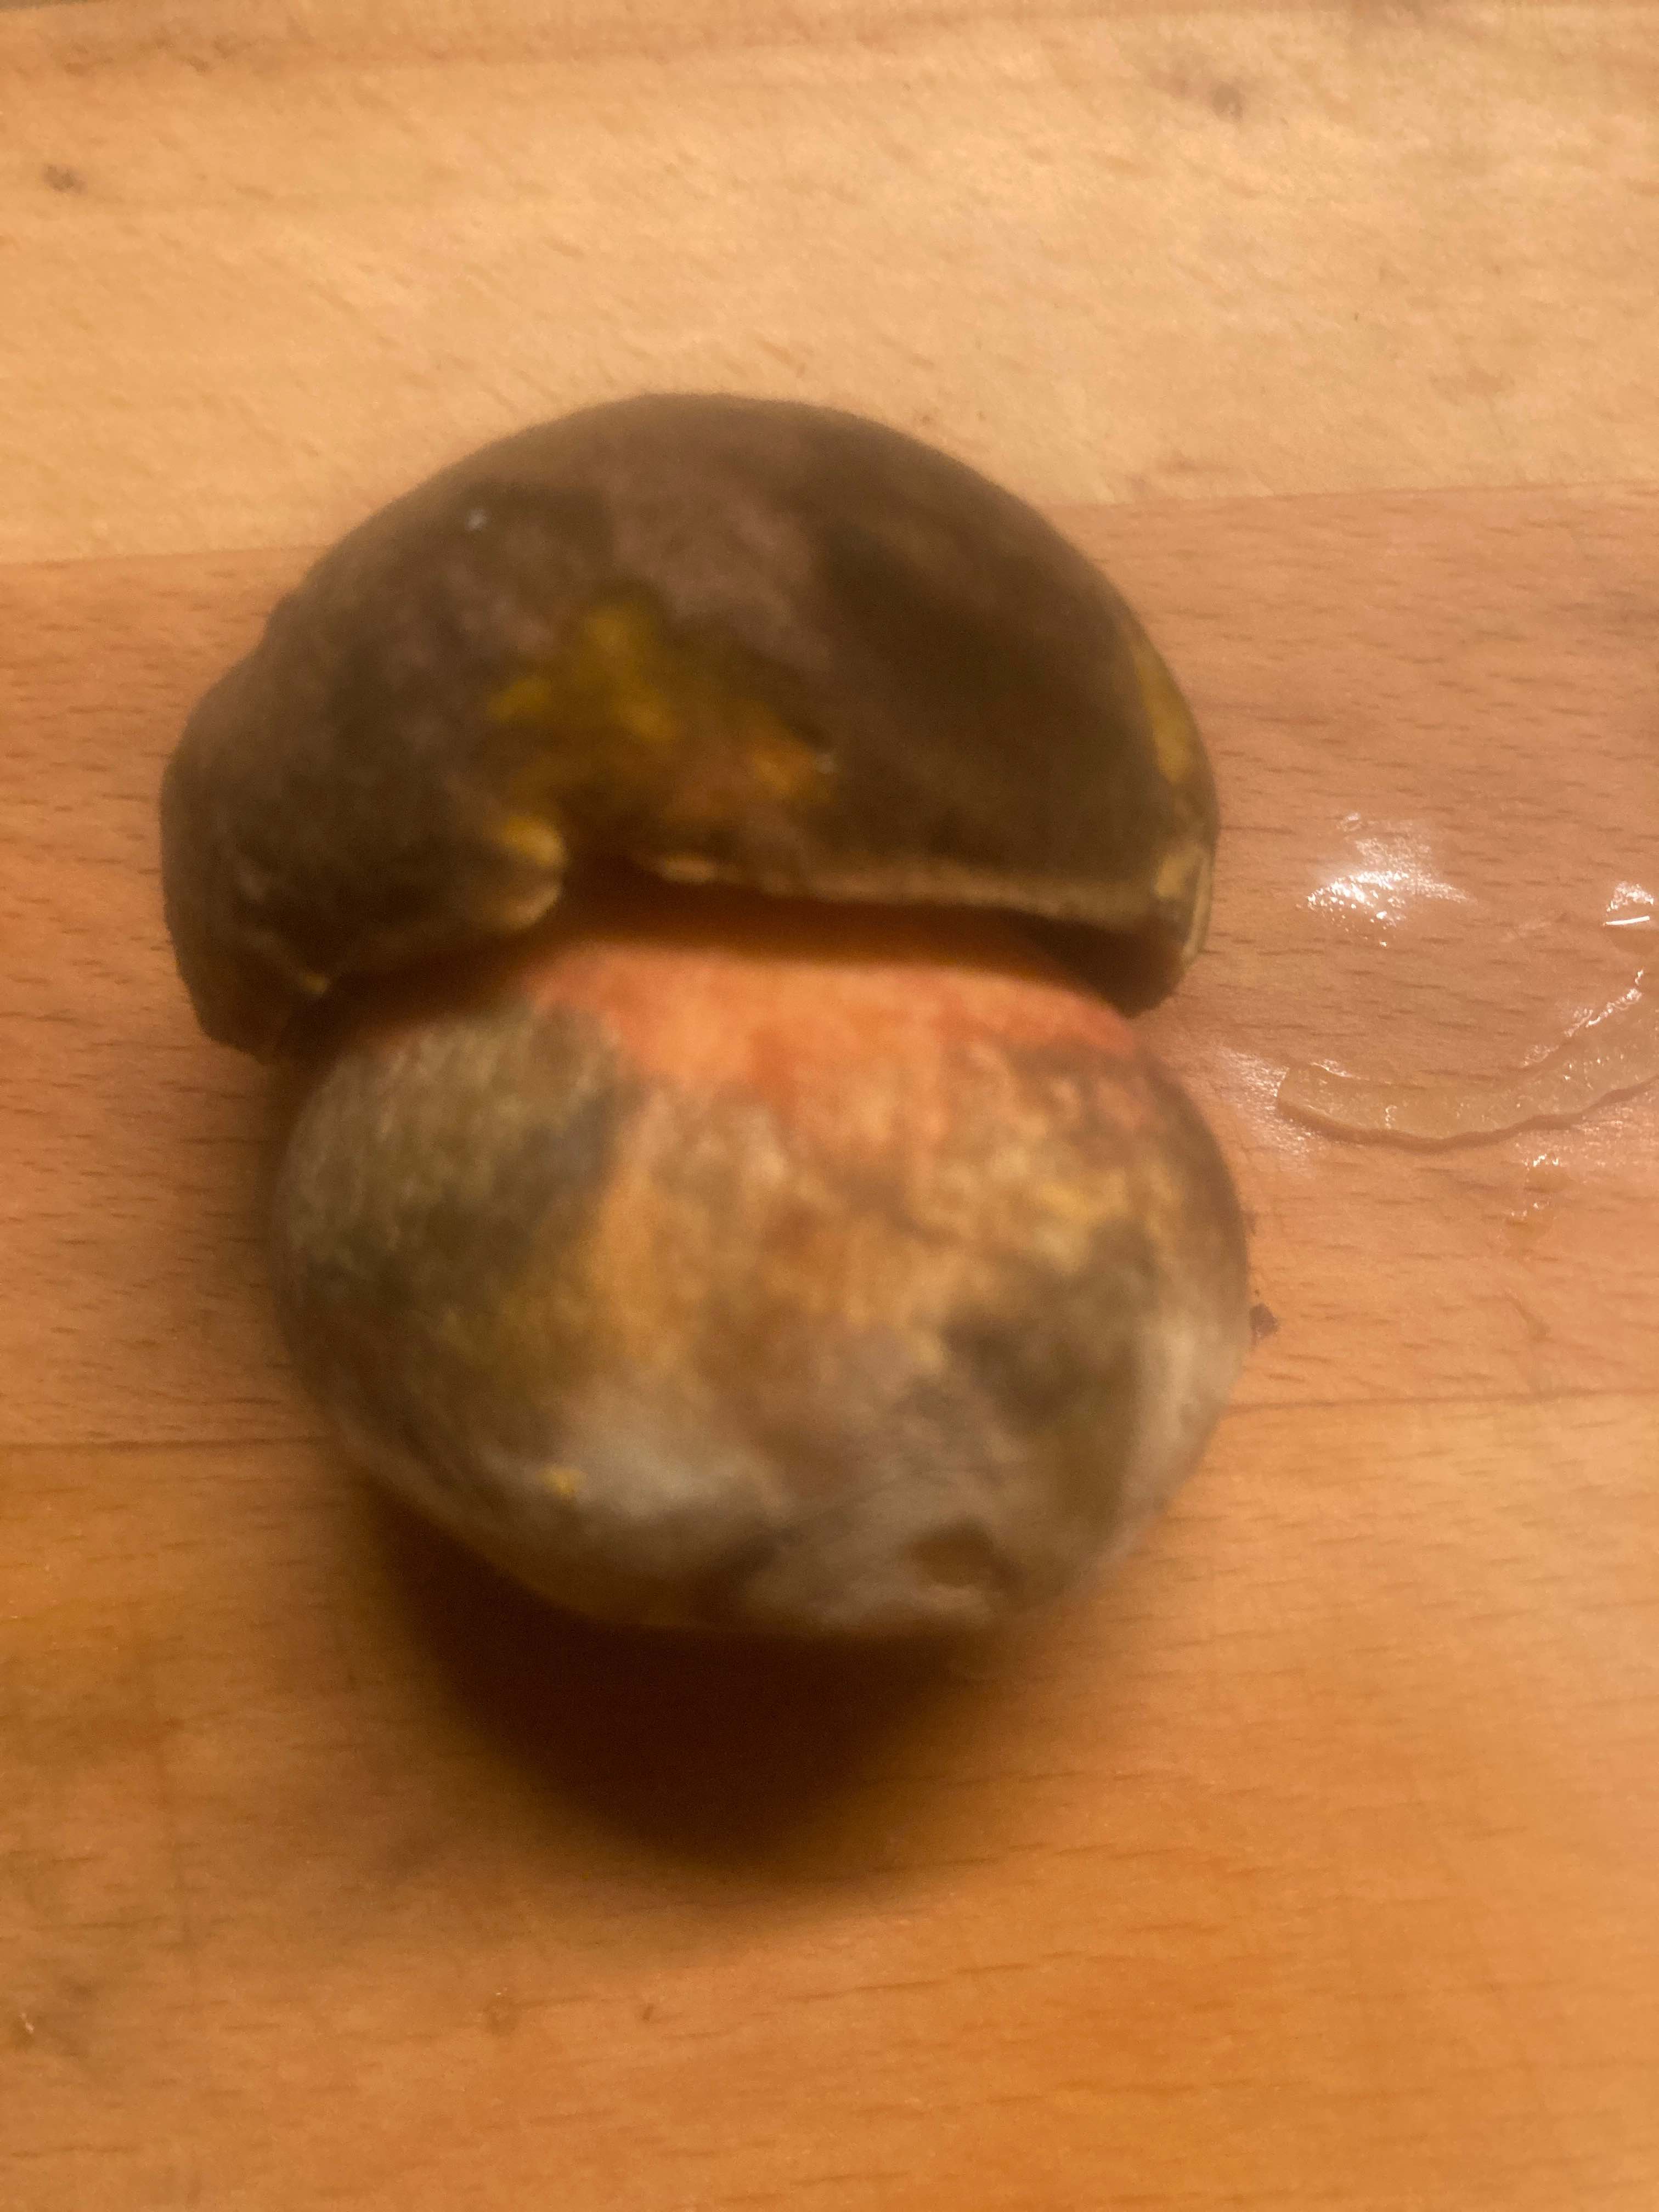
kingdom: Fungi
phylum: Basidiomycota
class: Agaricomycetes
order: Boletales
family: Boletaceae
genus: Neoboletus
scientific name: Neoboletus erythropus
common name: punktstokket indigorørhat
